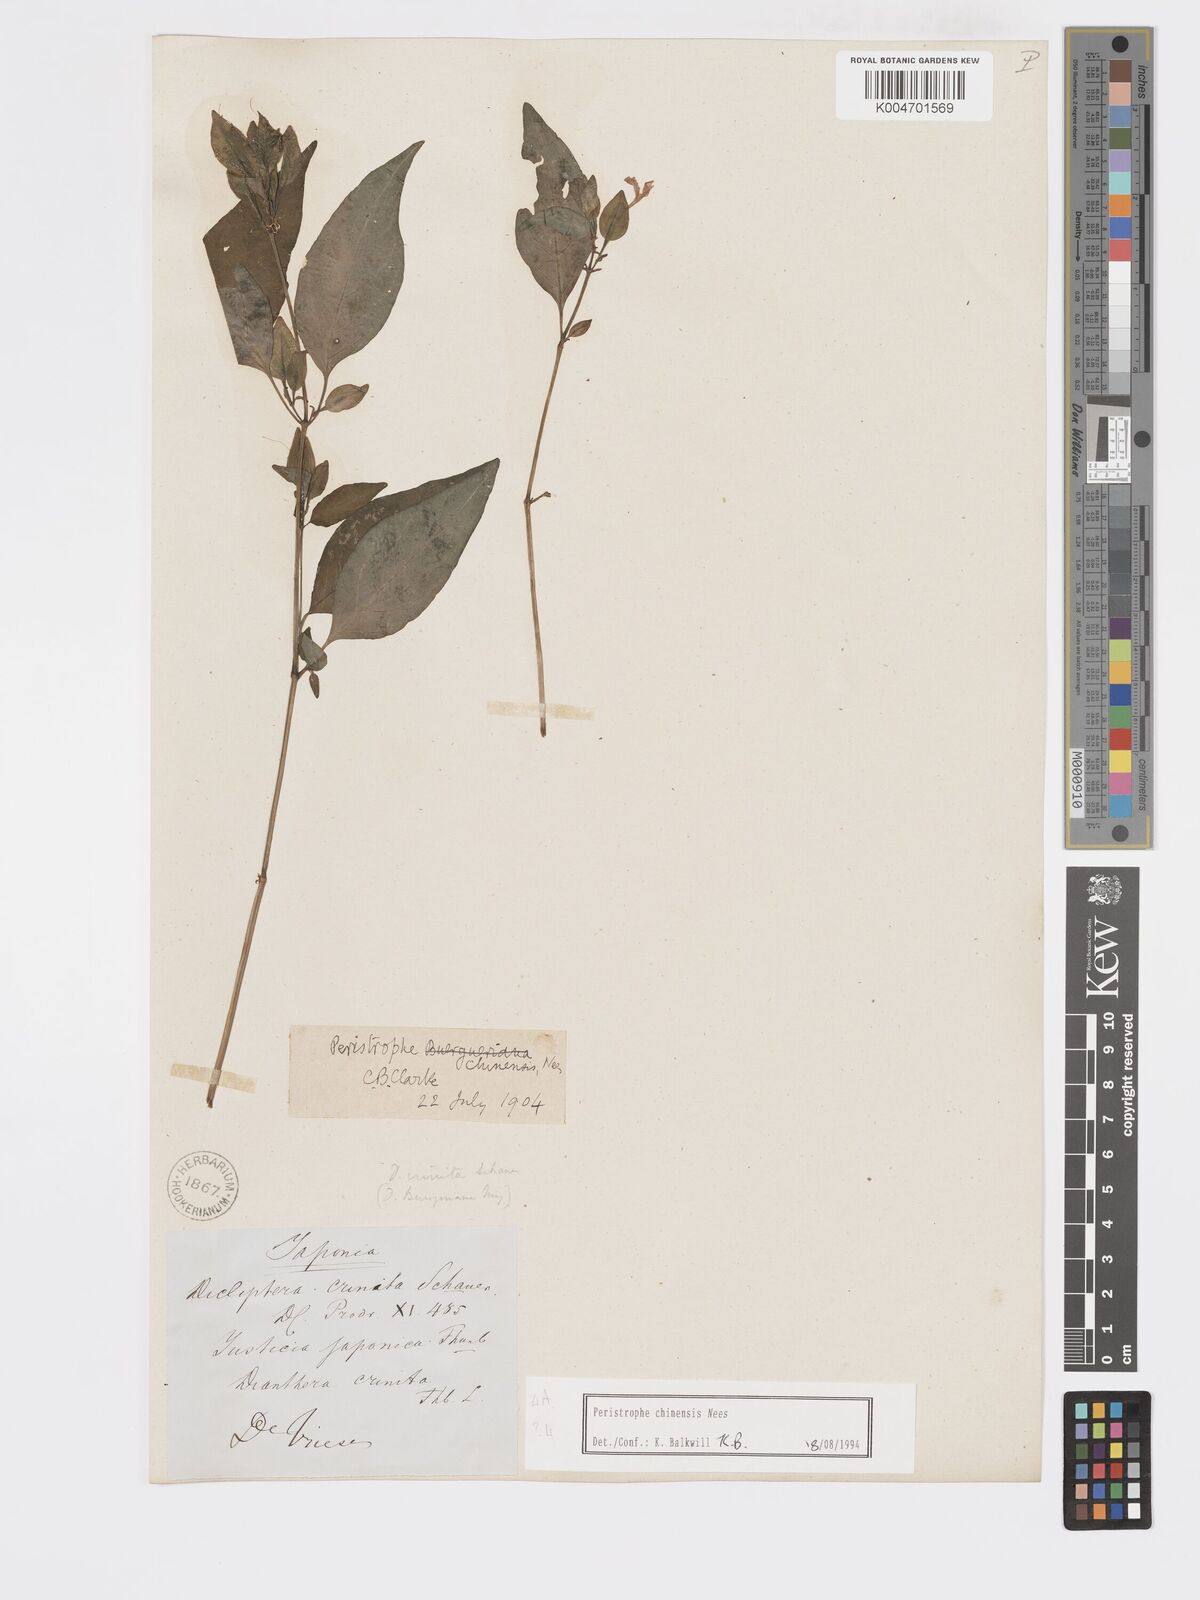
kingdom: Plantae
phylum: Tracheophyta
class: Magnoliopsida
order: Lamiales
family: Acanthaceae
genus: Dicliptera
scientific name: Dicliptera chinensis
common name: Chinese foldwing
